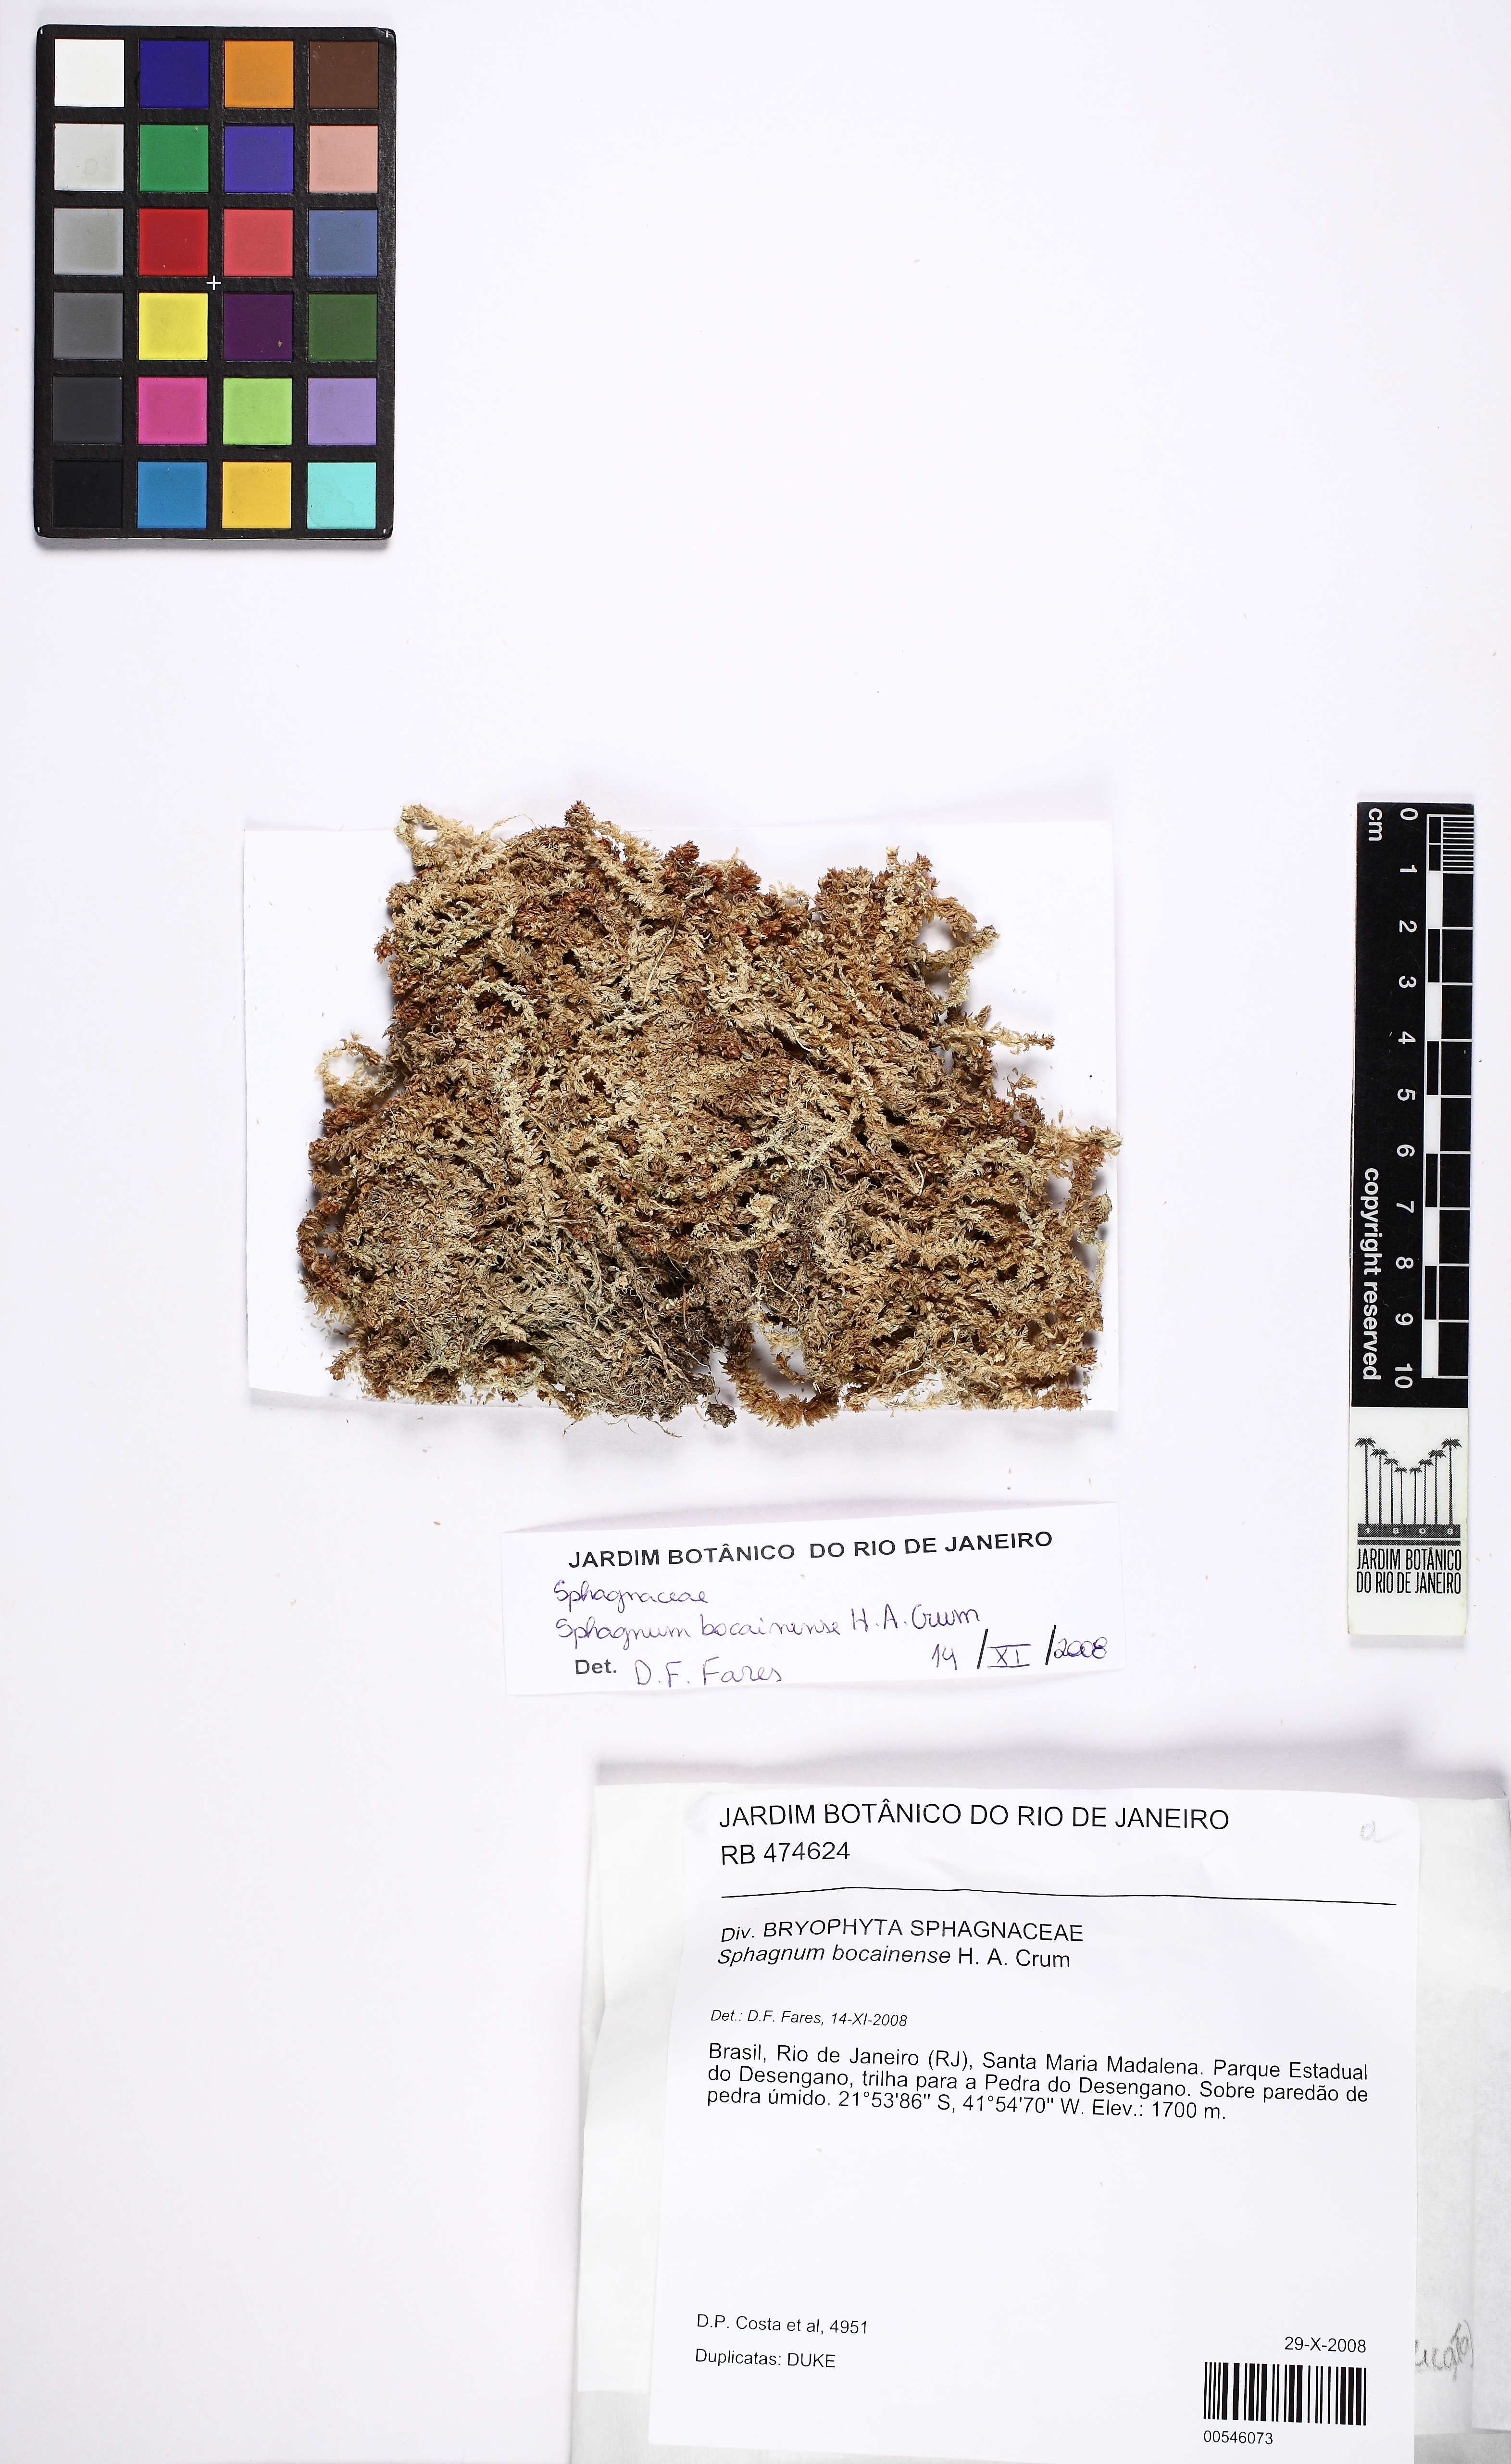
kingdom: Plantae
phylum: Bryophyta
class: Sphagnopsida
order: Sphagnales
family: Sphagnaceae
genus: Sphagnum
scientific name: Sphagnum longicomosum
